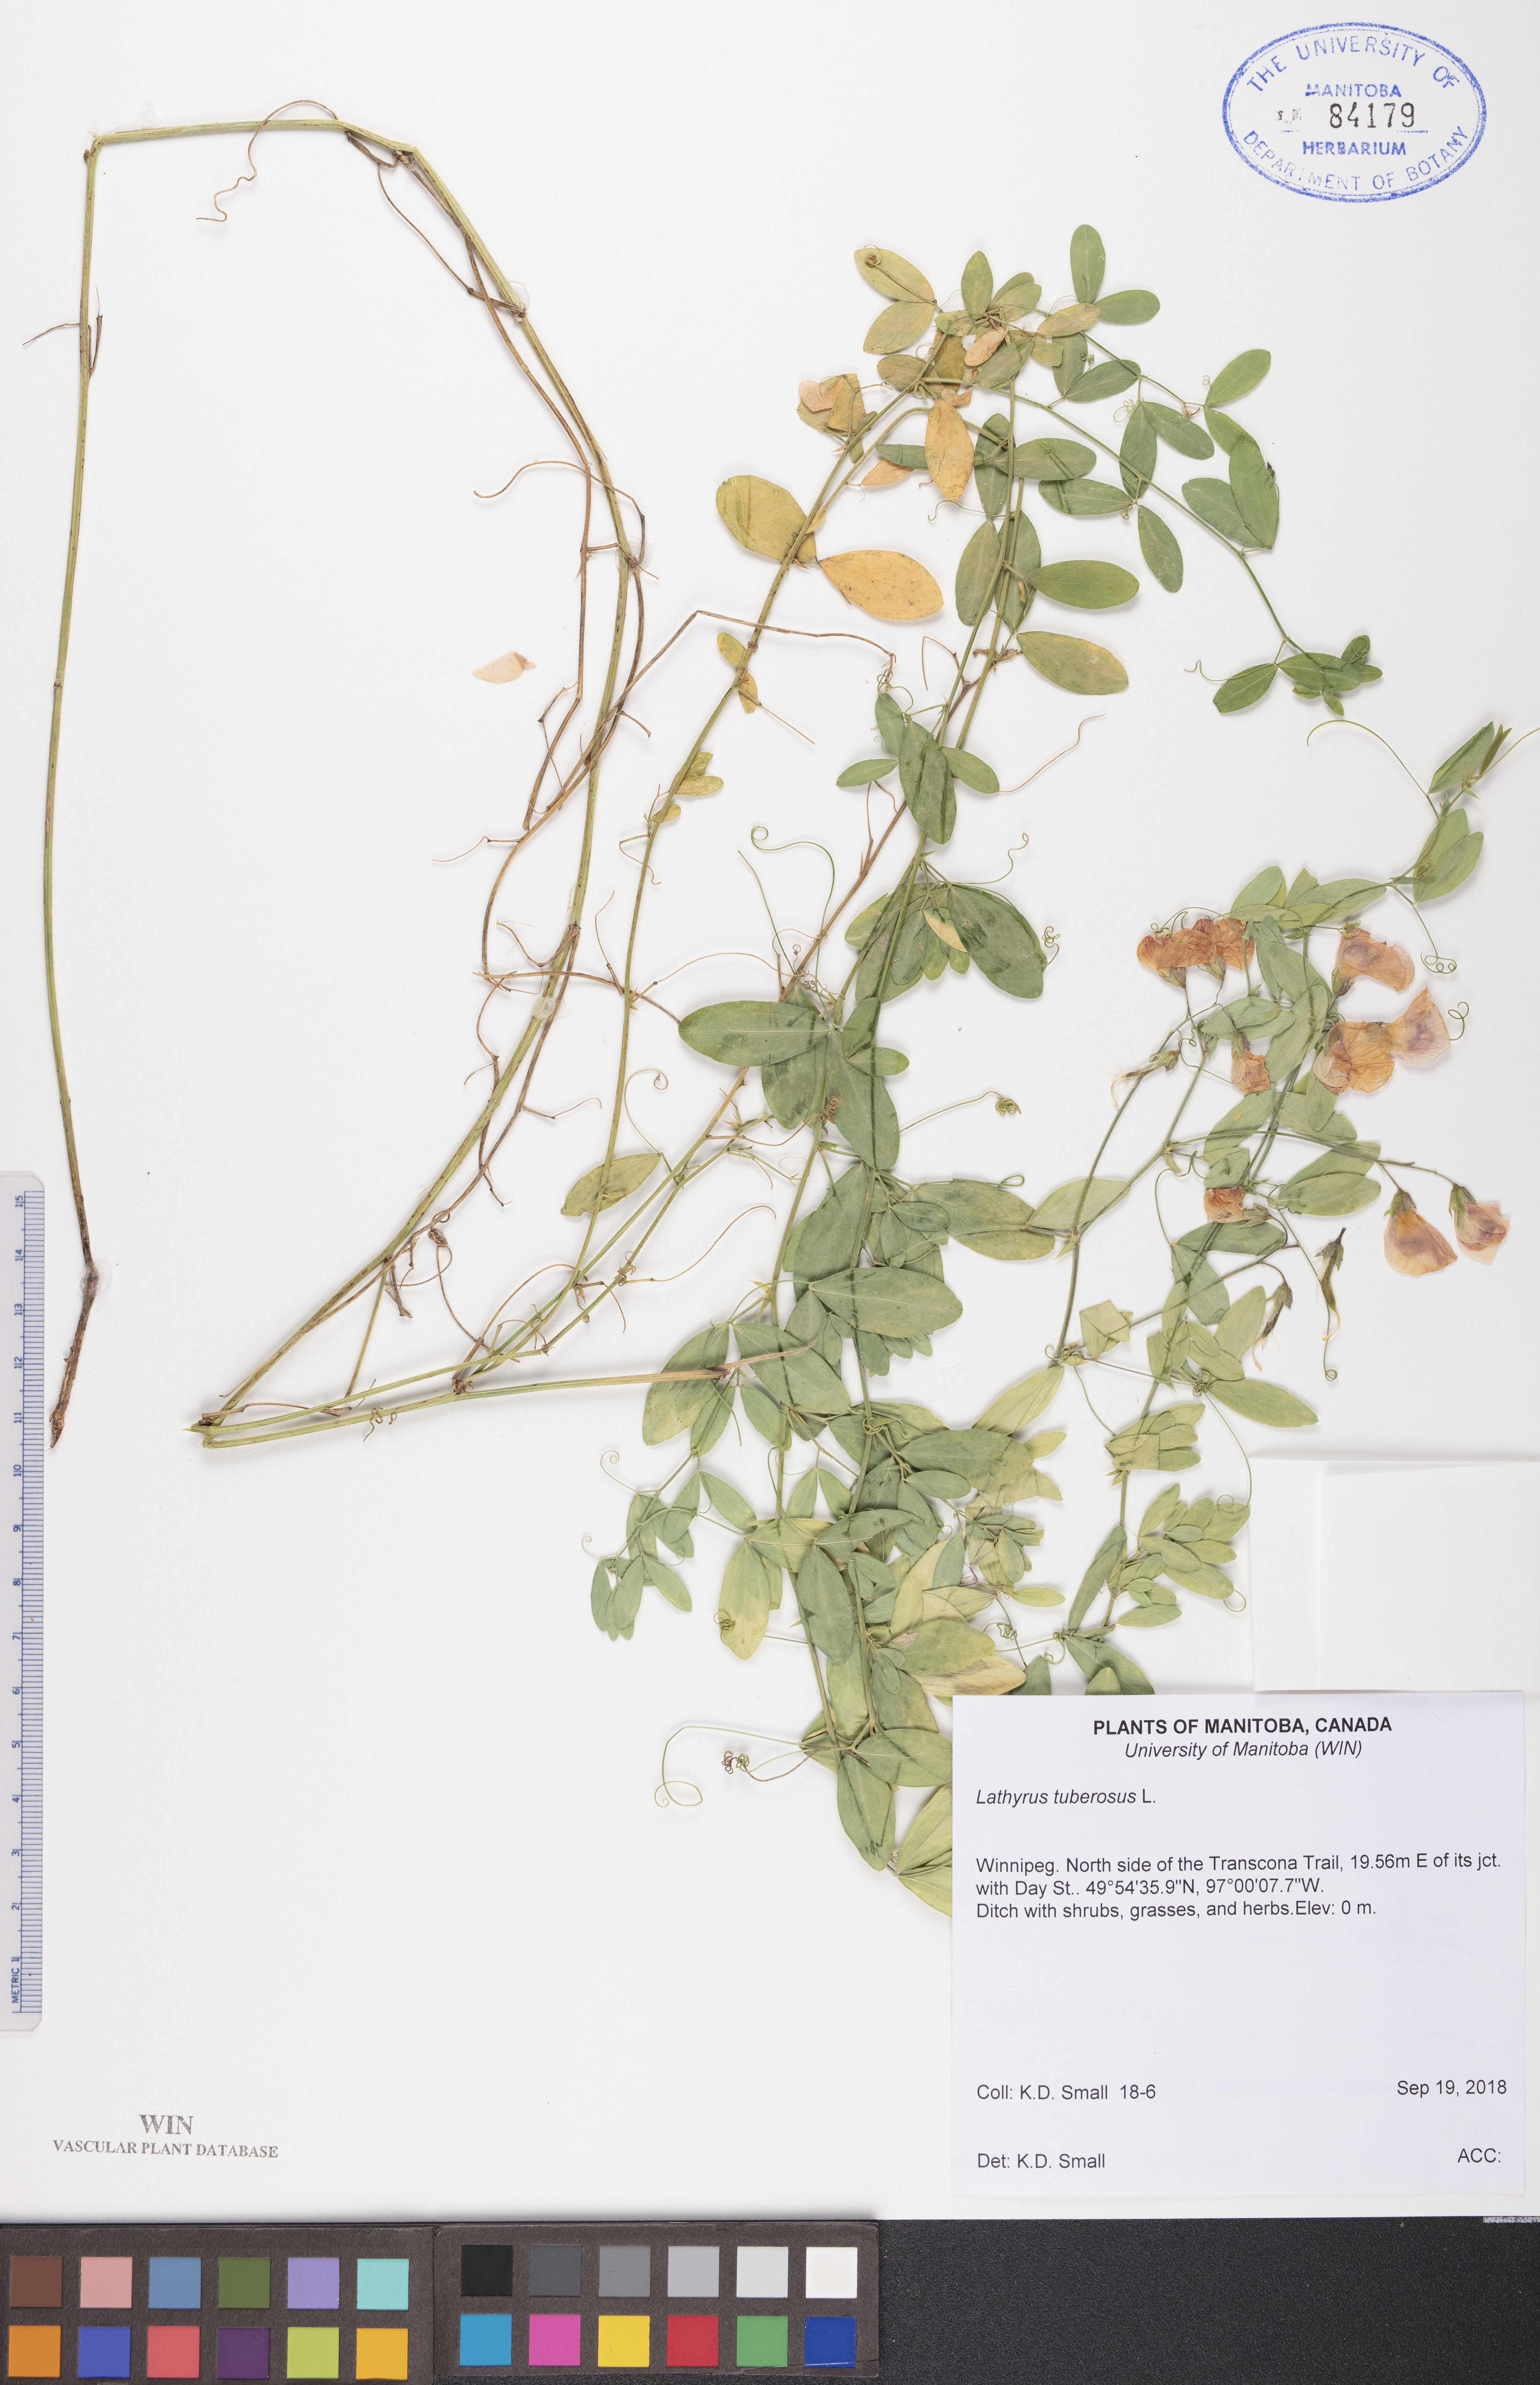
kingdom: Plantae
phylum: Tracheophyta
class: Magnoliopsida
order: Fabales
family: Fabaceae
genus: Lathyrus
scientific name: Lathyrus tuberosus
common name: Tuberous pea
